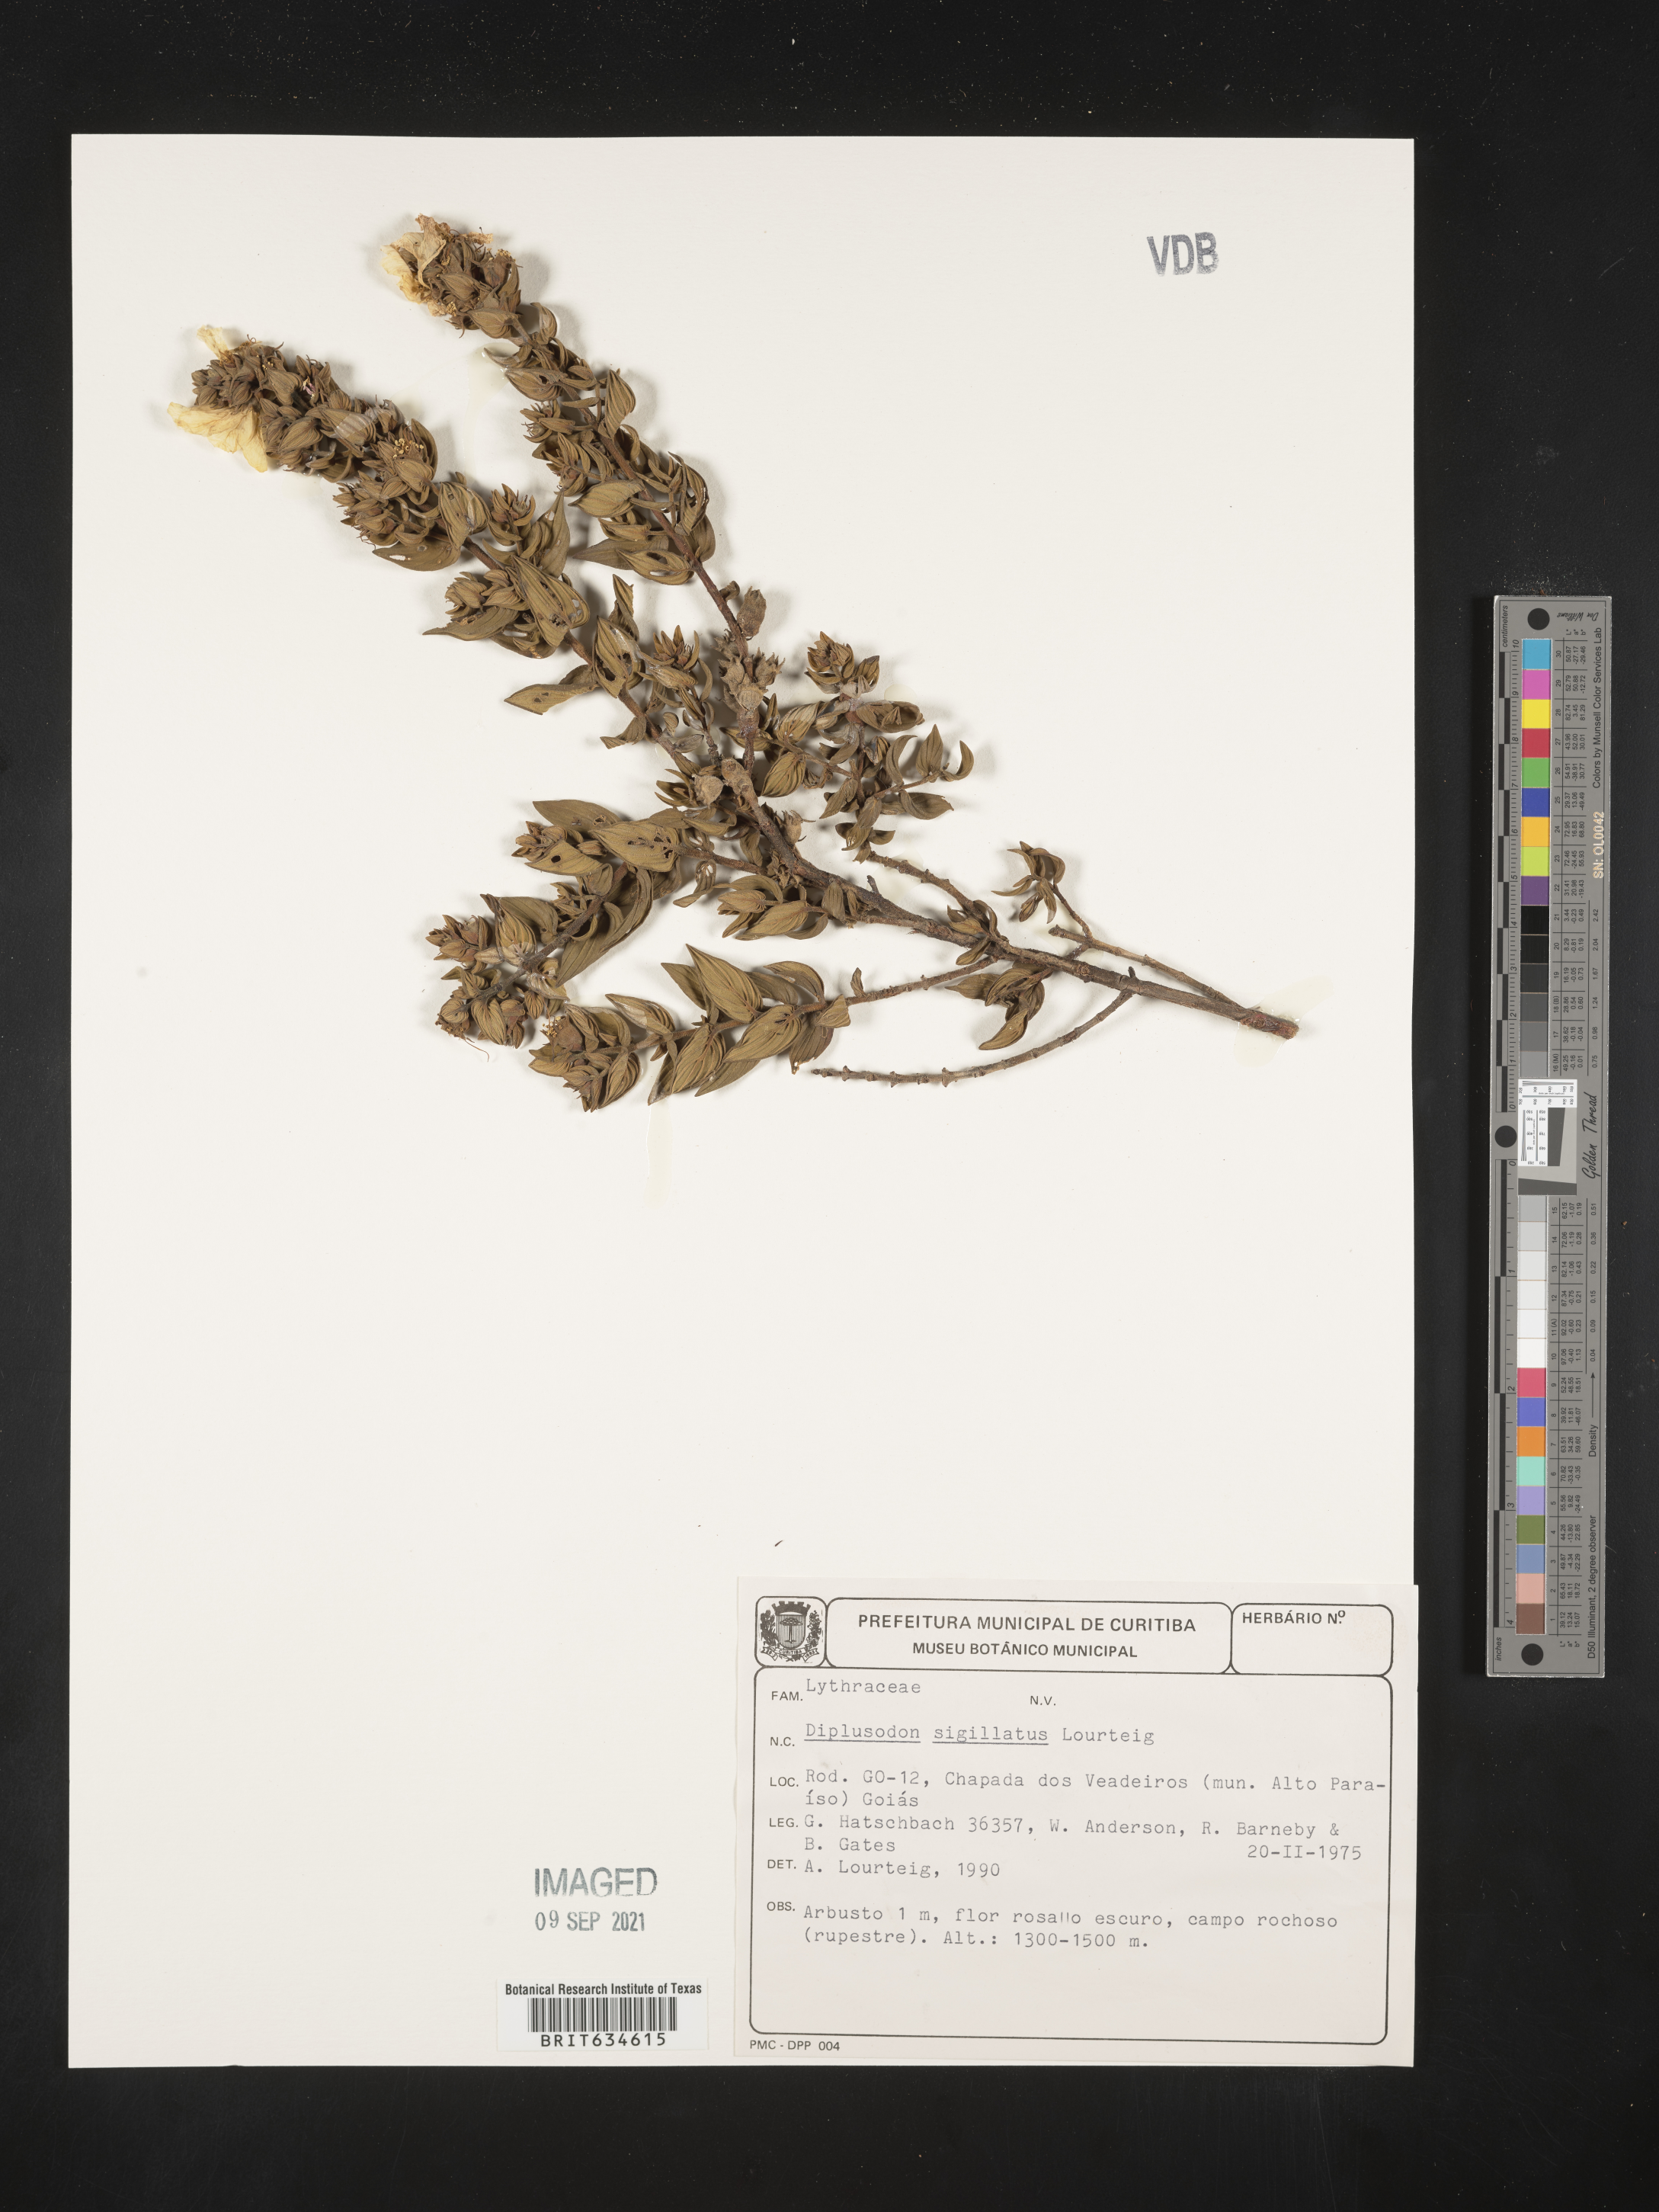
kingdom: Plantae
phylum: Tracheophyta
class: Magnoliopsida
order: Myrtales
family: Lythraceae
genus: Diplusodon
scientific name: Diplusodon
